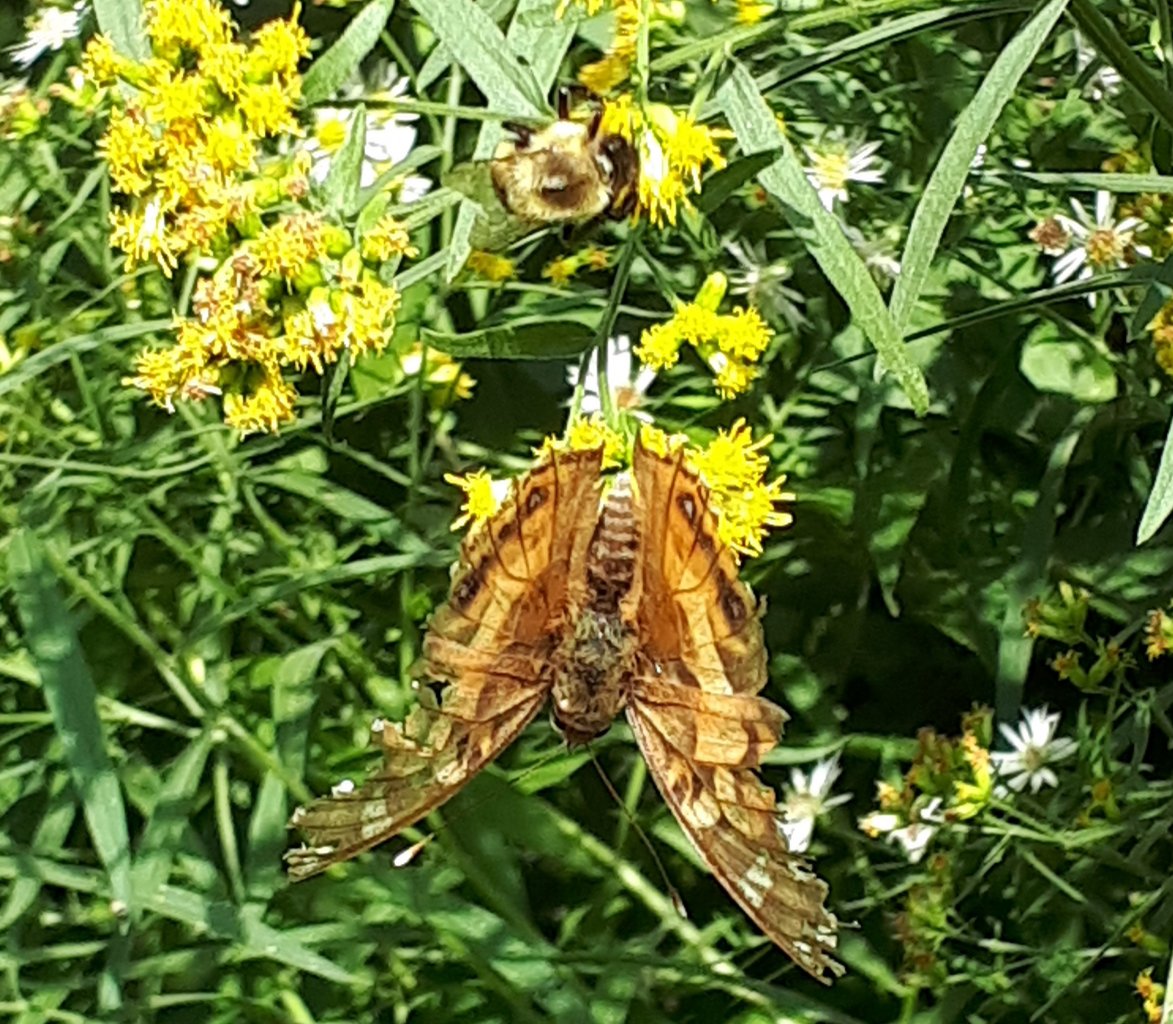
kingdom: Animalia
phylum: Arthropoda
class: Insecta
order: Lepidoptera
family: Nymphalidae
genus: Vanessa
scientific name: Vanessa virginiensis
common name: American Lady
